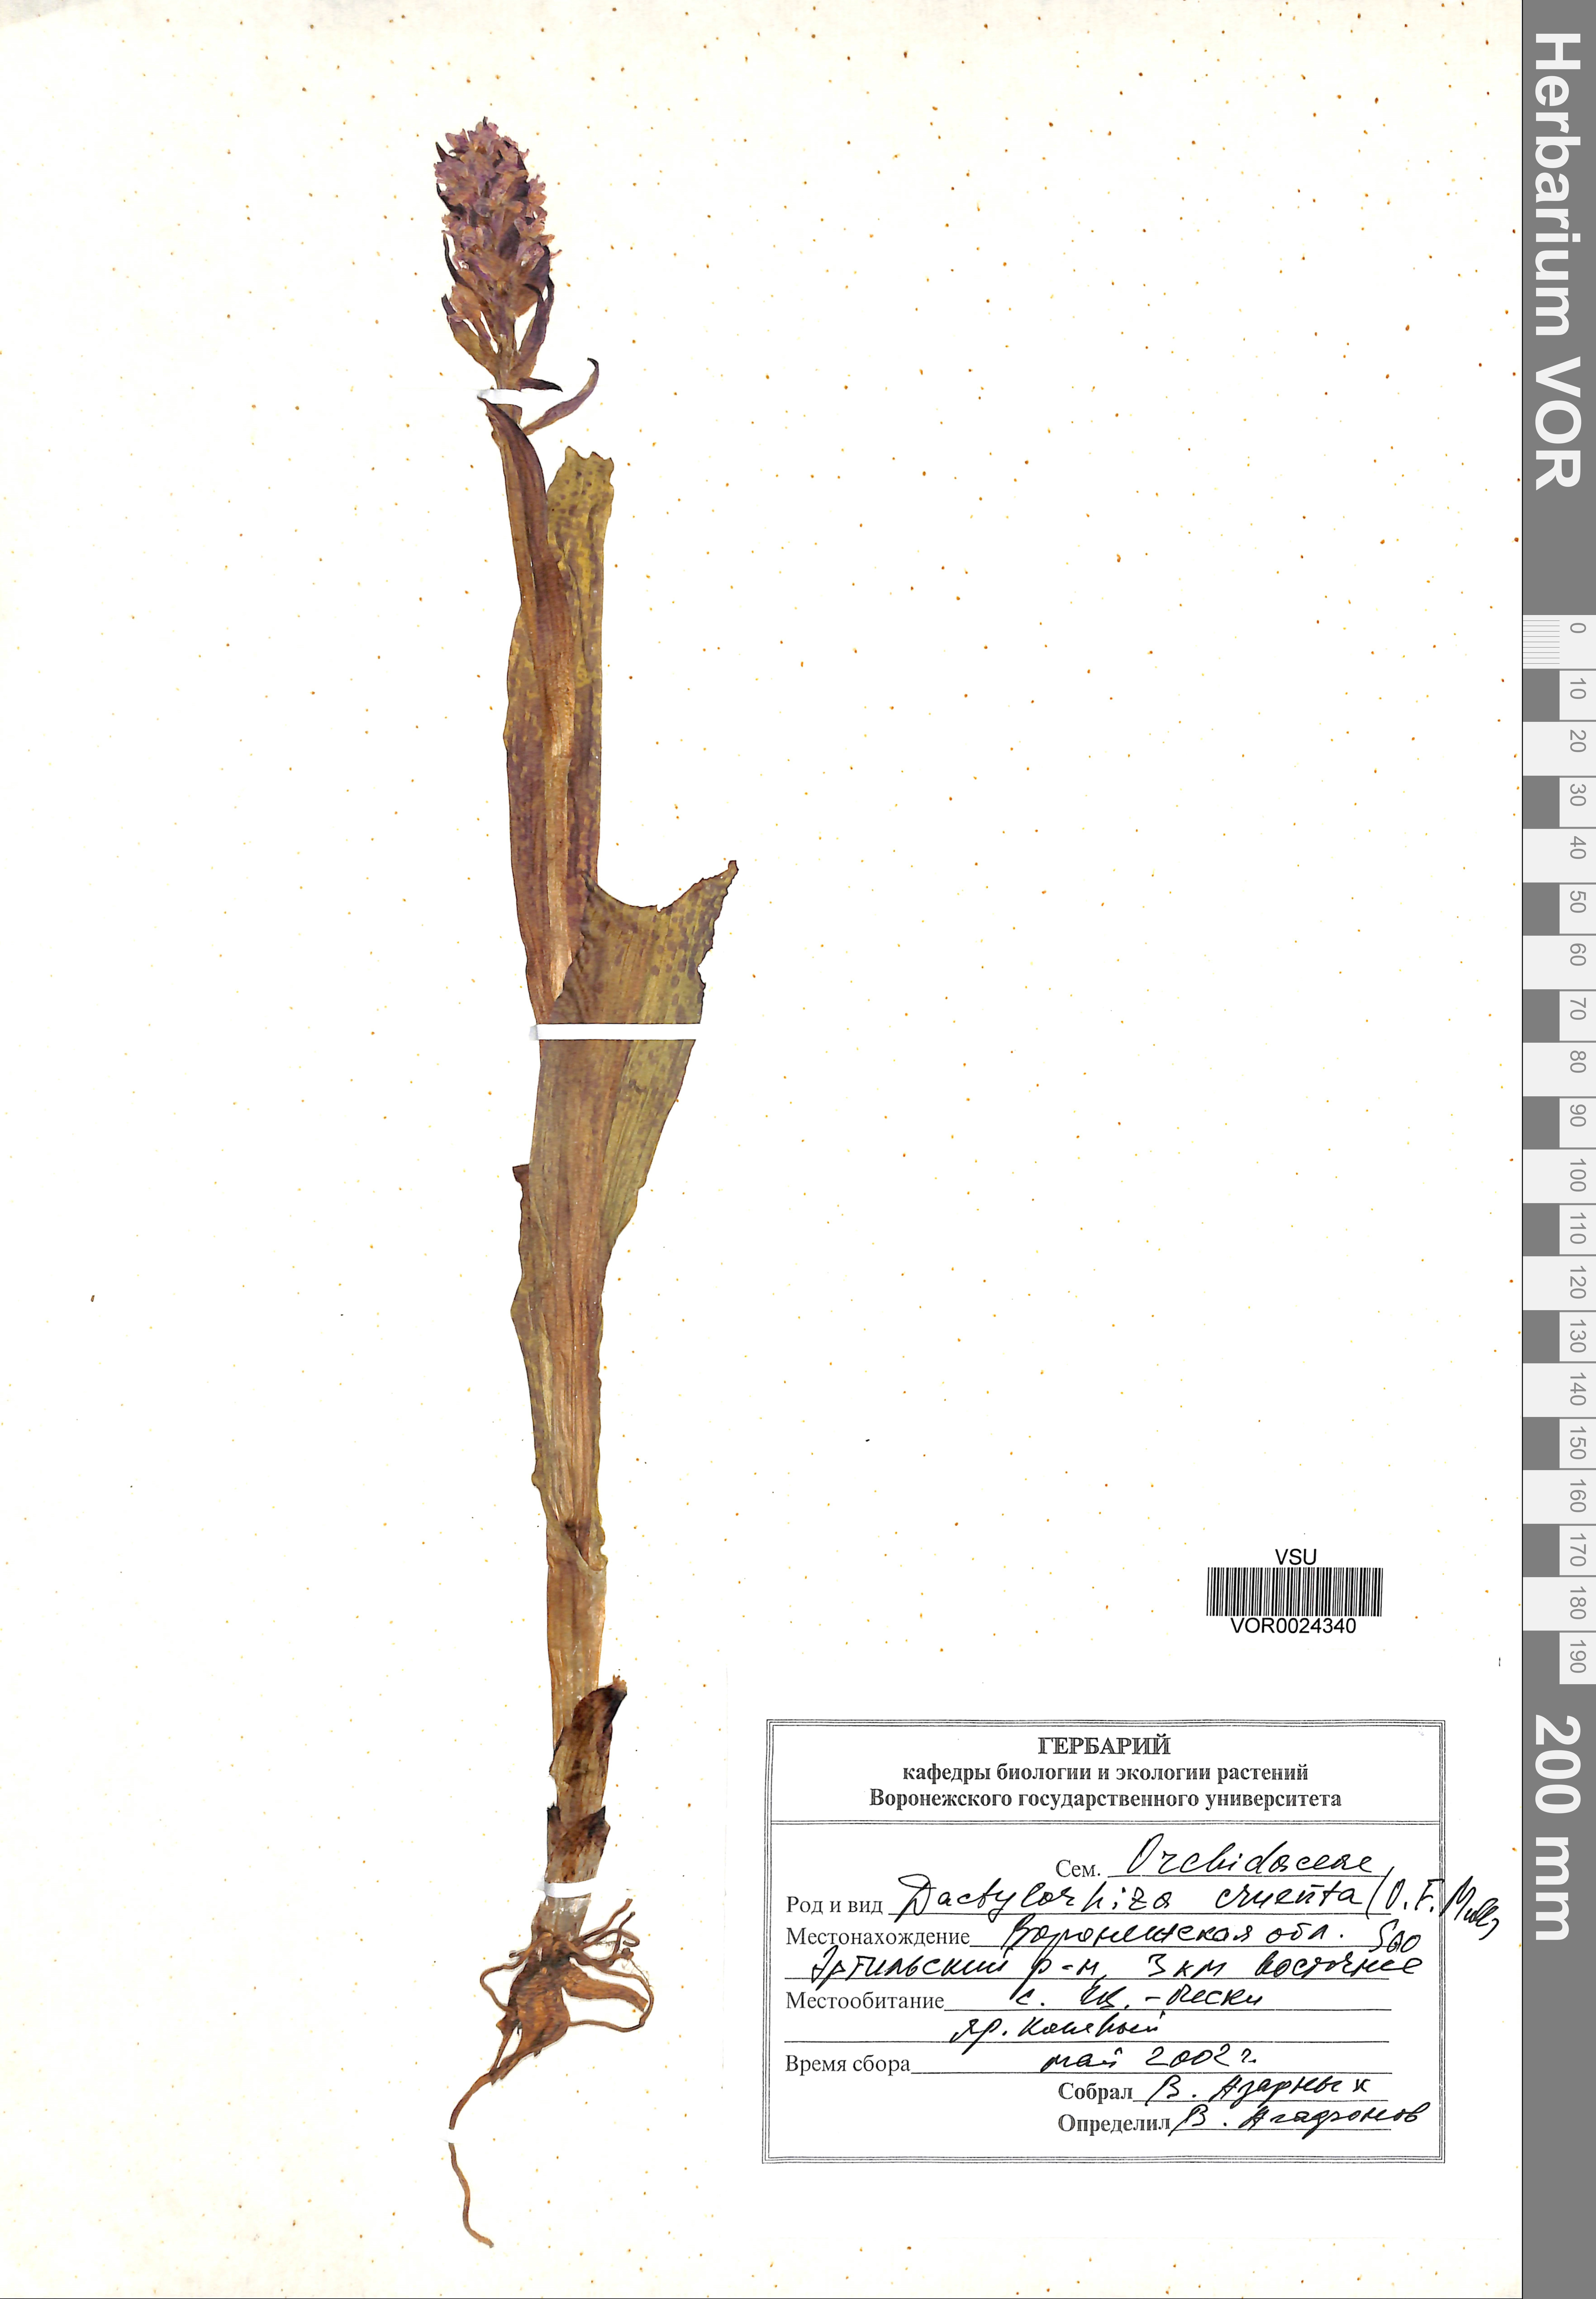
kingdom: Plantae
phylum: Tracheophyta
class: Liliopsida
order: Asparagales
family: Orchidaceae
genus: Dactylorhiza
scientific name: Dactylorhiza incarnata
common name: Early marsh-orchid
